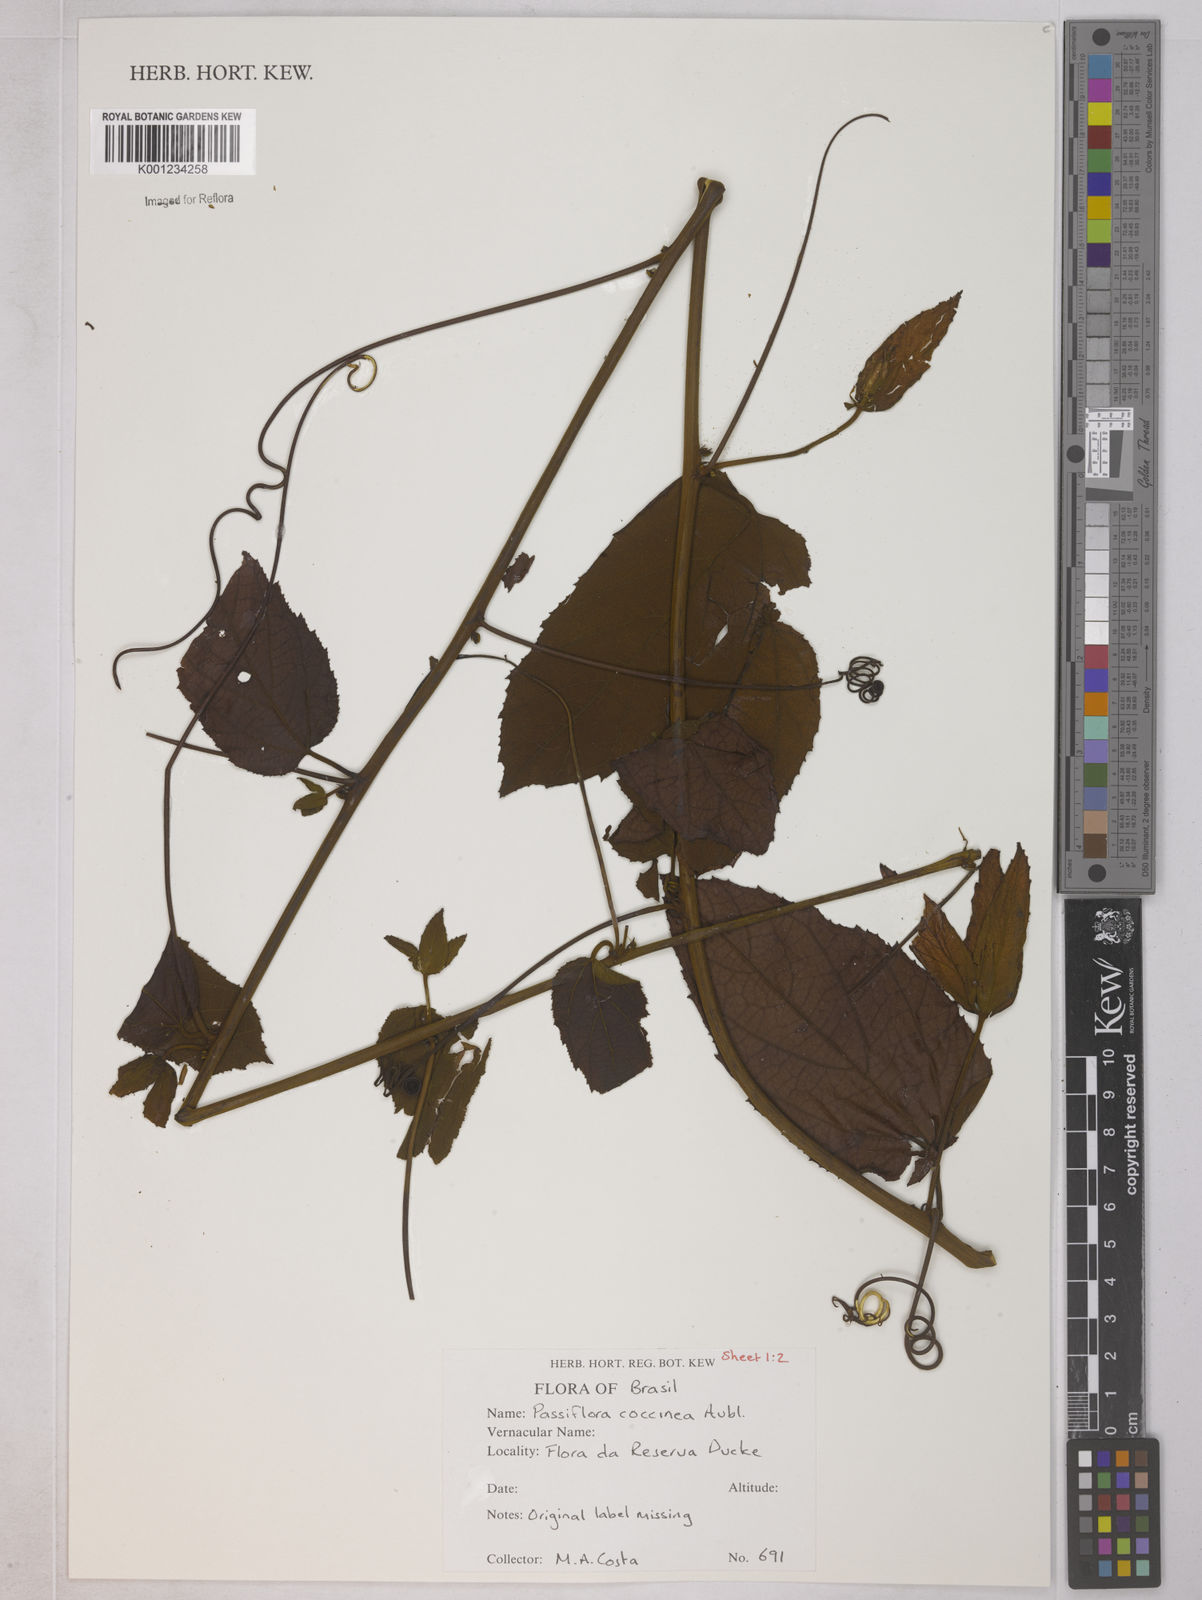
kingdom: Plantae
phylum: Tracheophyta
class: Magnoliopsida
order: Malpighiales
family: Passifloraceae
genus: Passiflora
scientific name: Passiflora coccinea
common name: Scarlet passionflower
